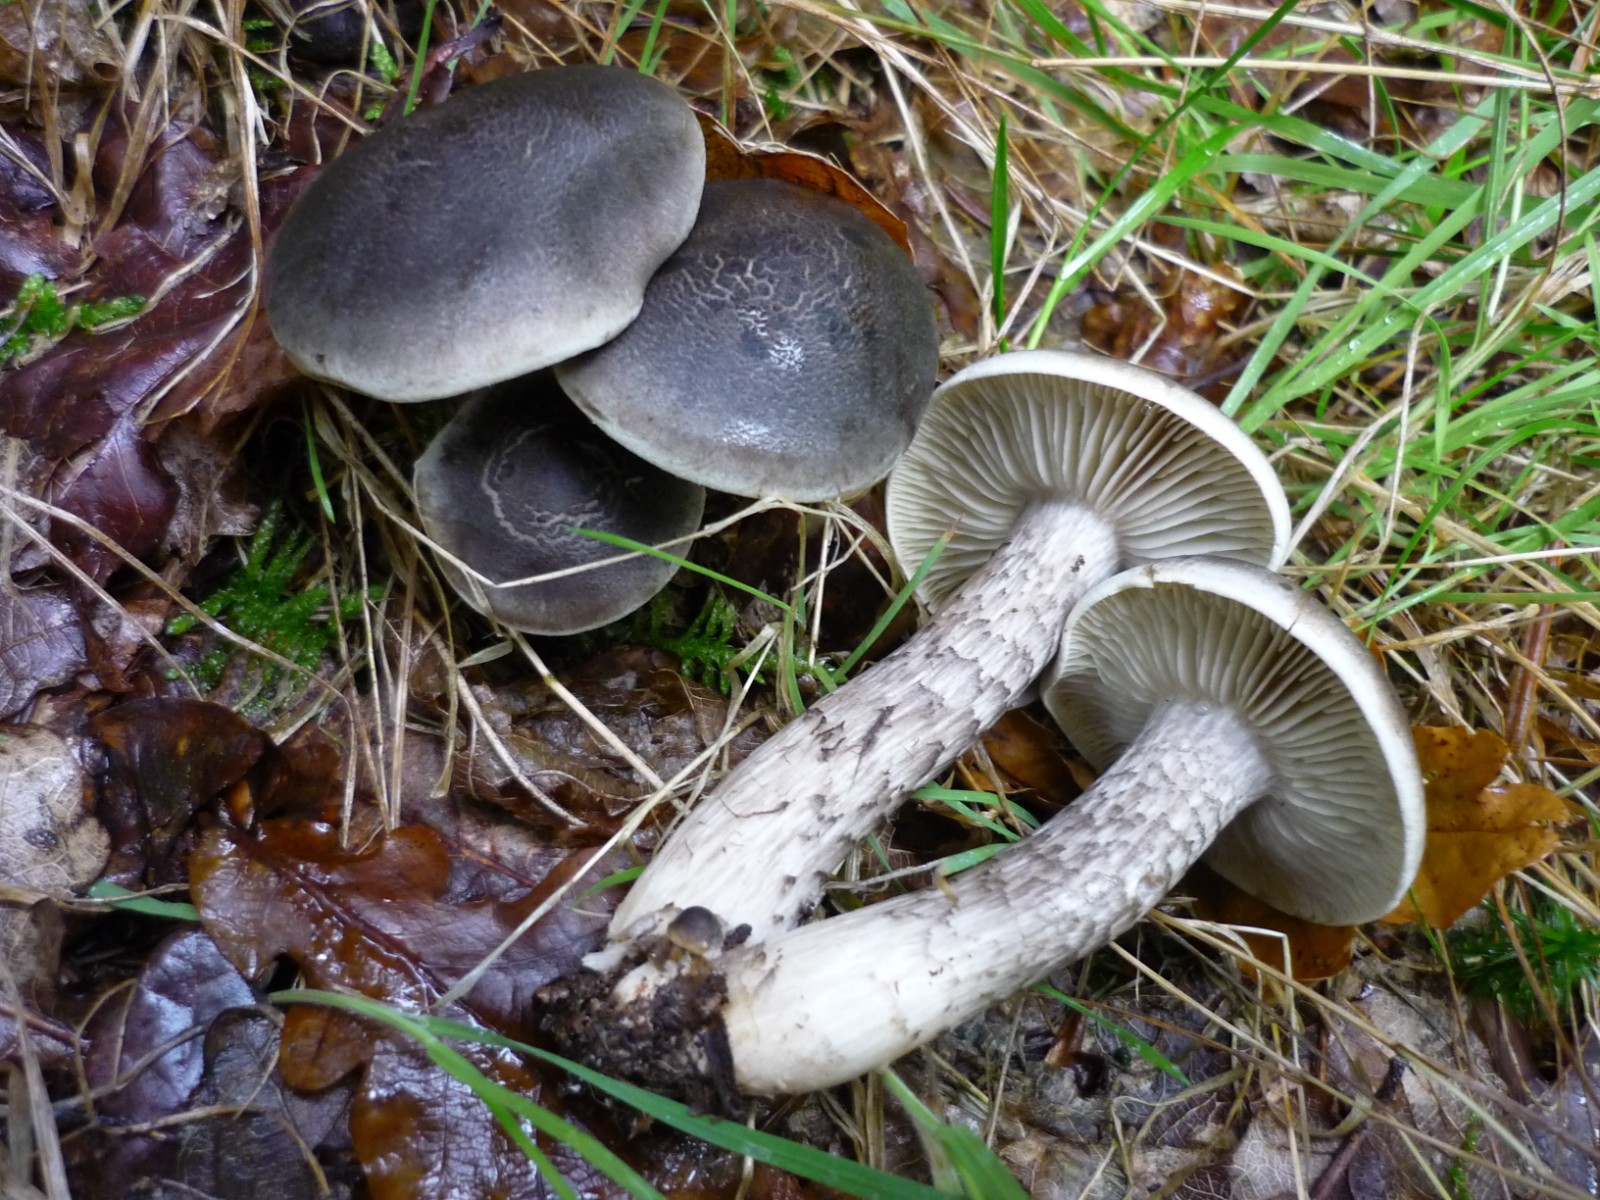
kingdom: Fungi
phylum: Basidiomycota
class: Agaricomycetes
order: Agaricales
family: Tricholomataceae
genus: Tricholoma
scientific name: Tricholoma saponaceum
